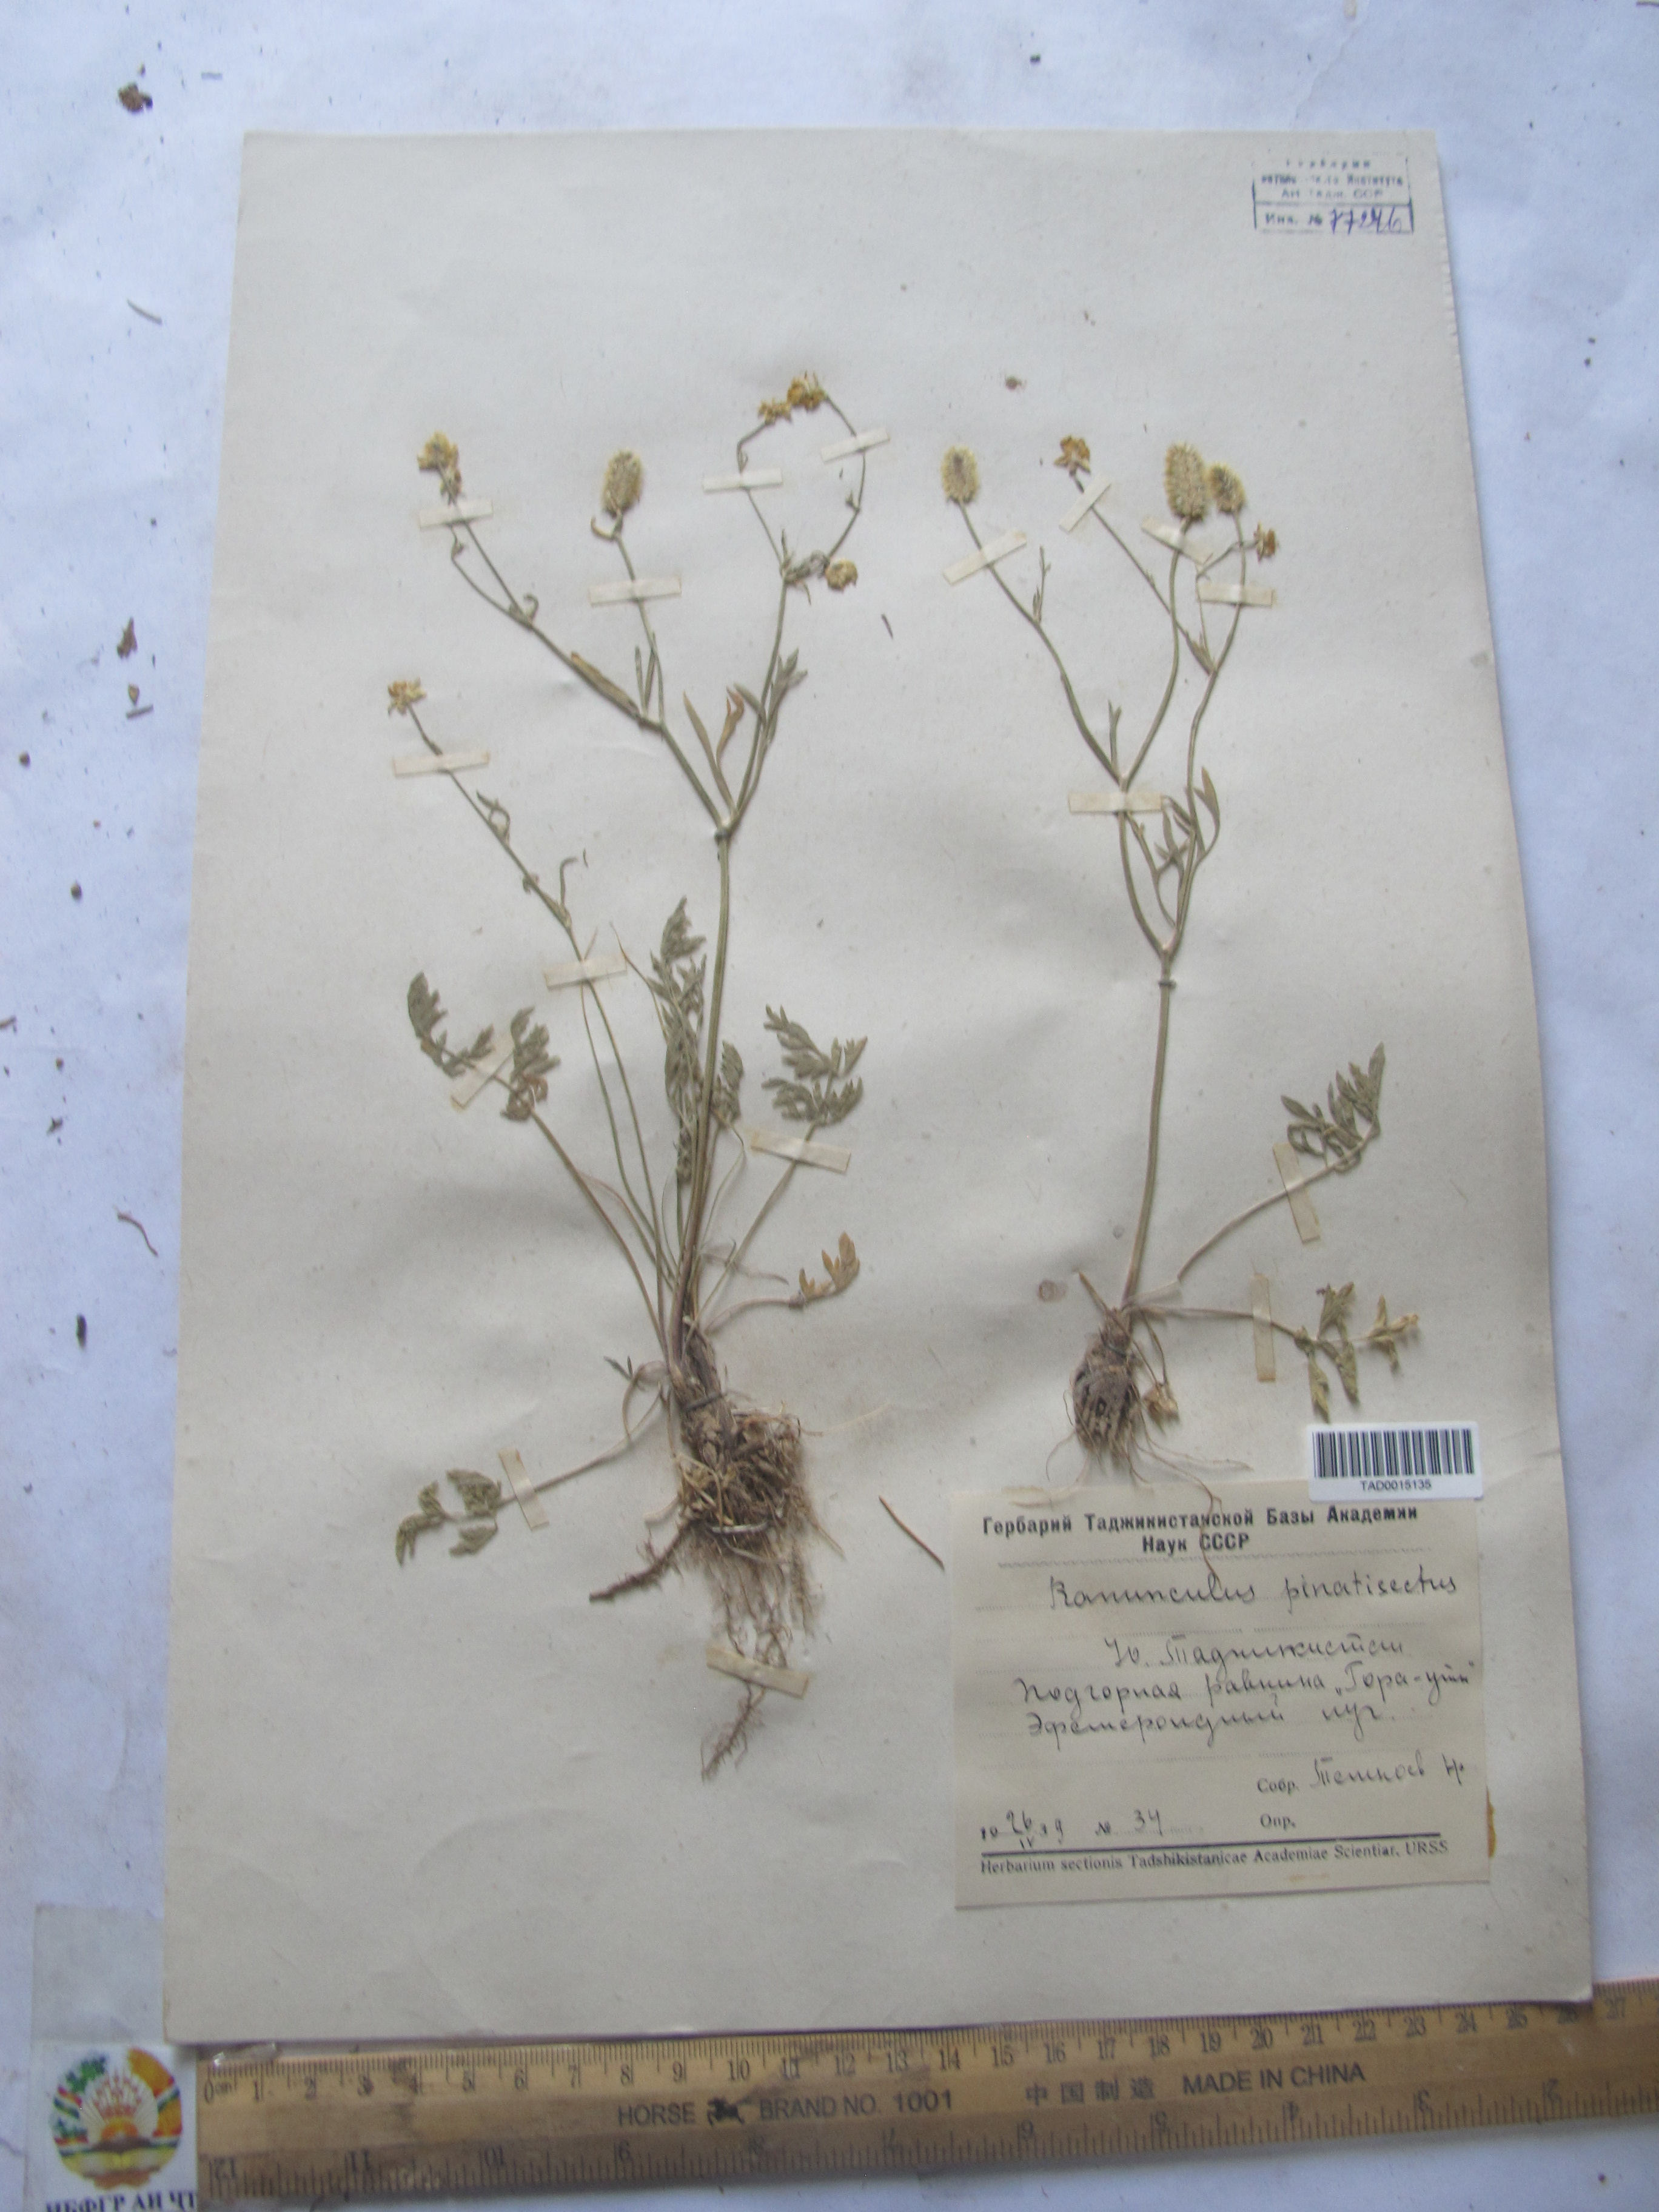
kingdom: Plantae
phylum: Tracheophyta
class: Magnoliopsida
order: Ranunculales
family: Ranunculaceae
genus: Ranunculus
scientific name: Ranunculus pinnatisectus
